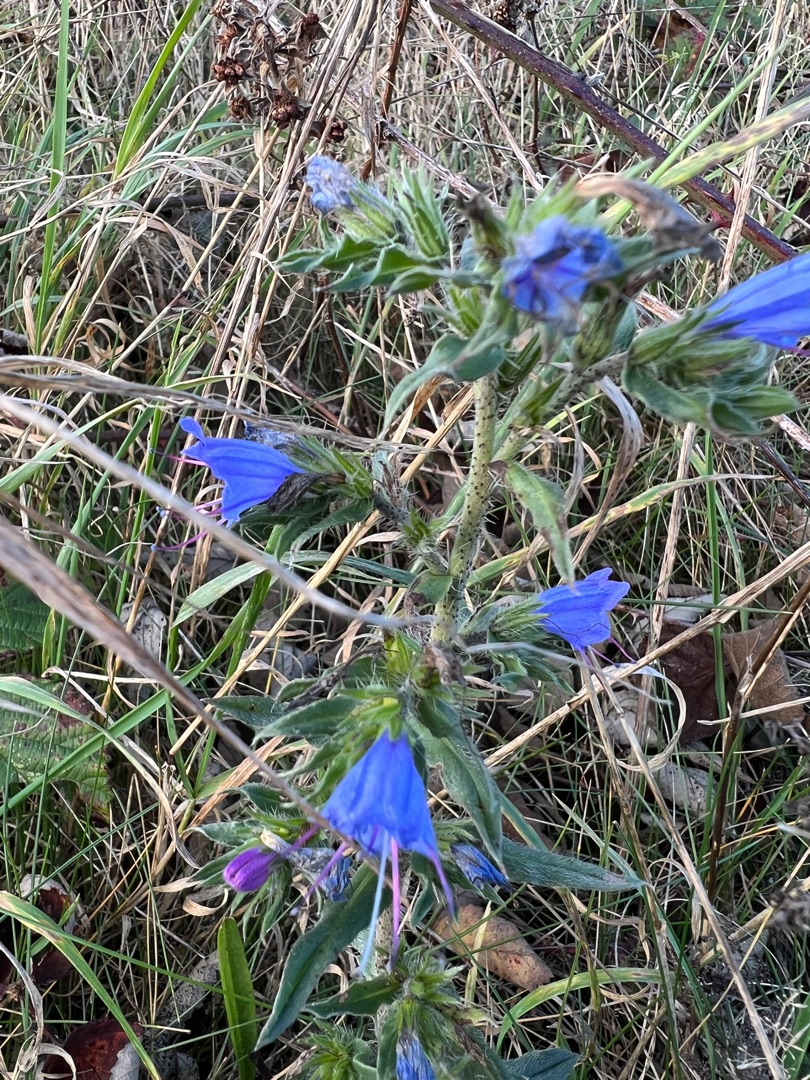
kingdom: Plantae
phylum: Tracheophyta
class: Magnoliopsida
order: Boraginales
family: Boraginaceae
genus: Echium
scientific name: Echium vulgare
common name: Slangehoved
